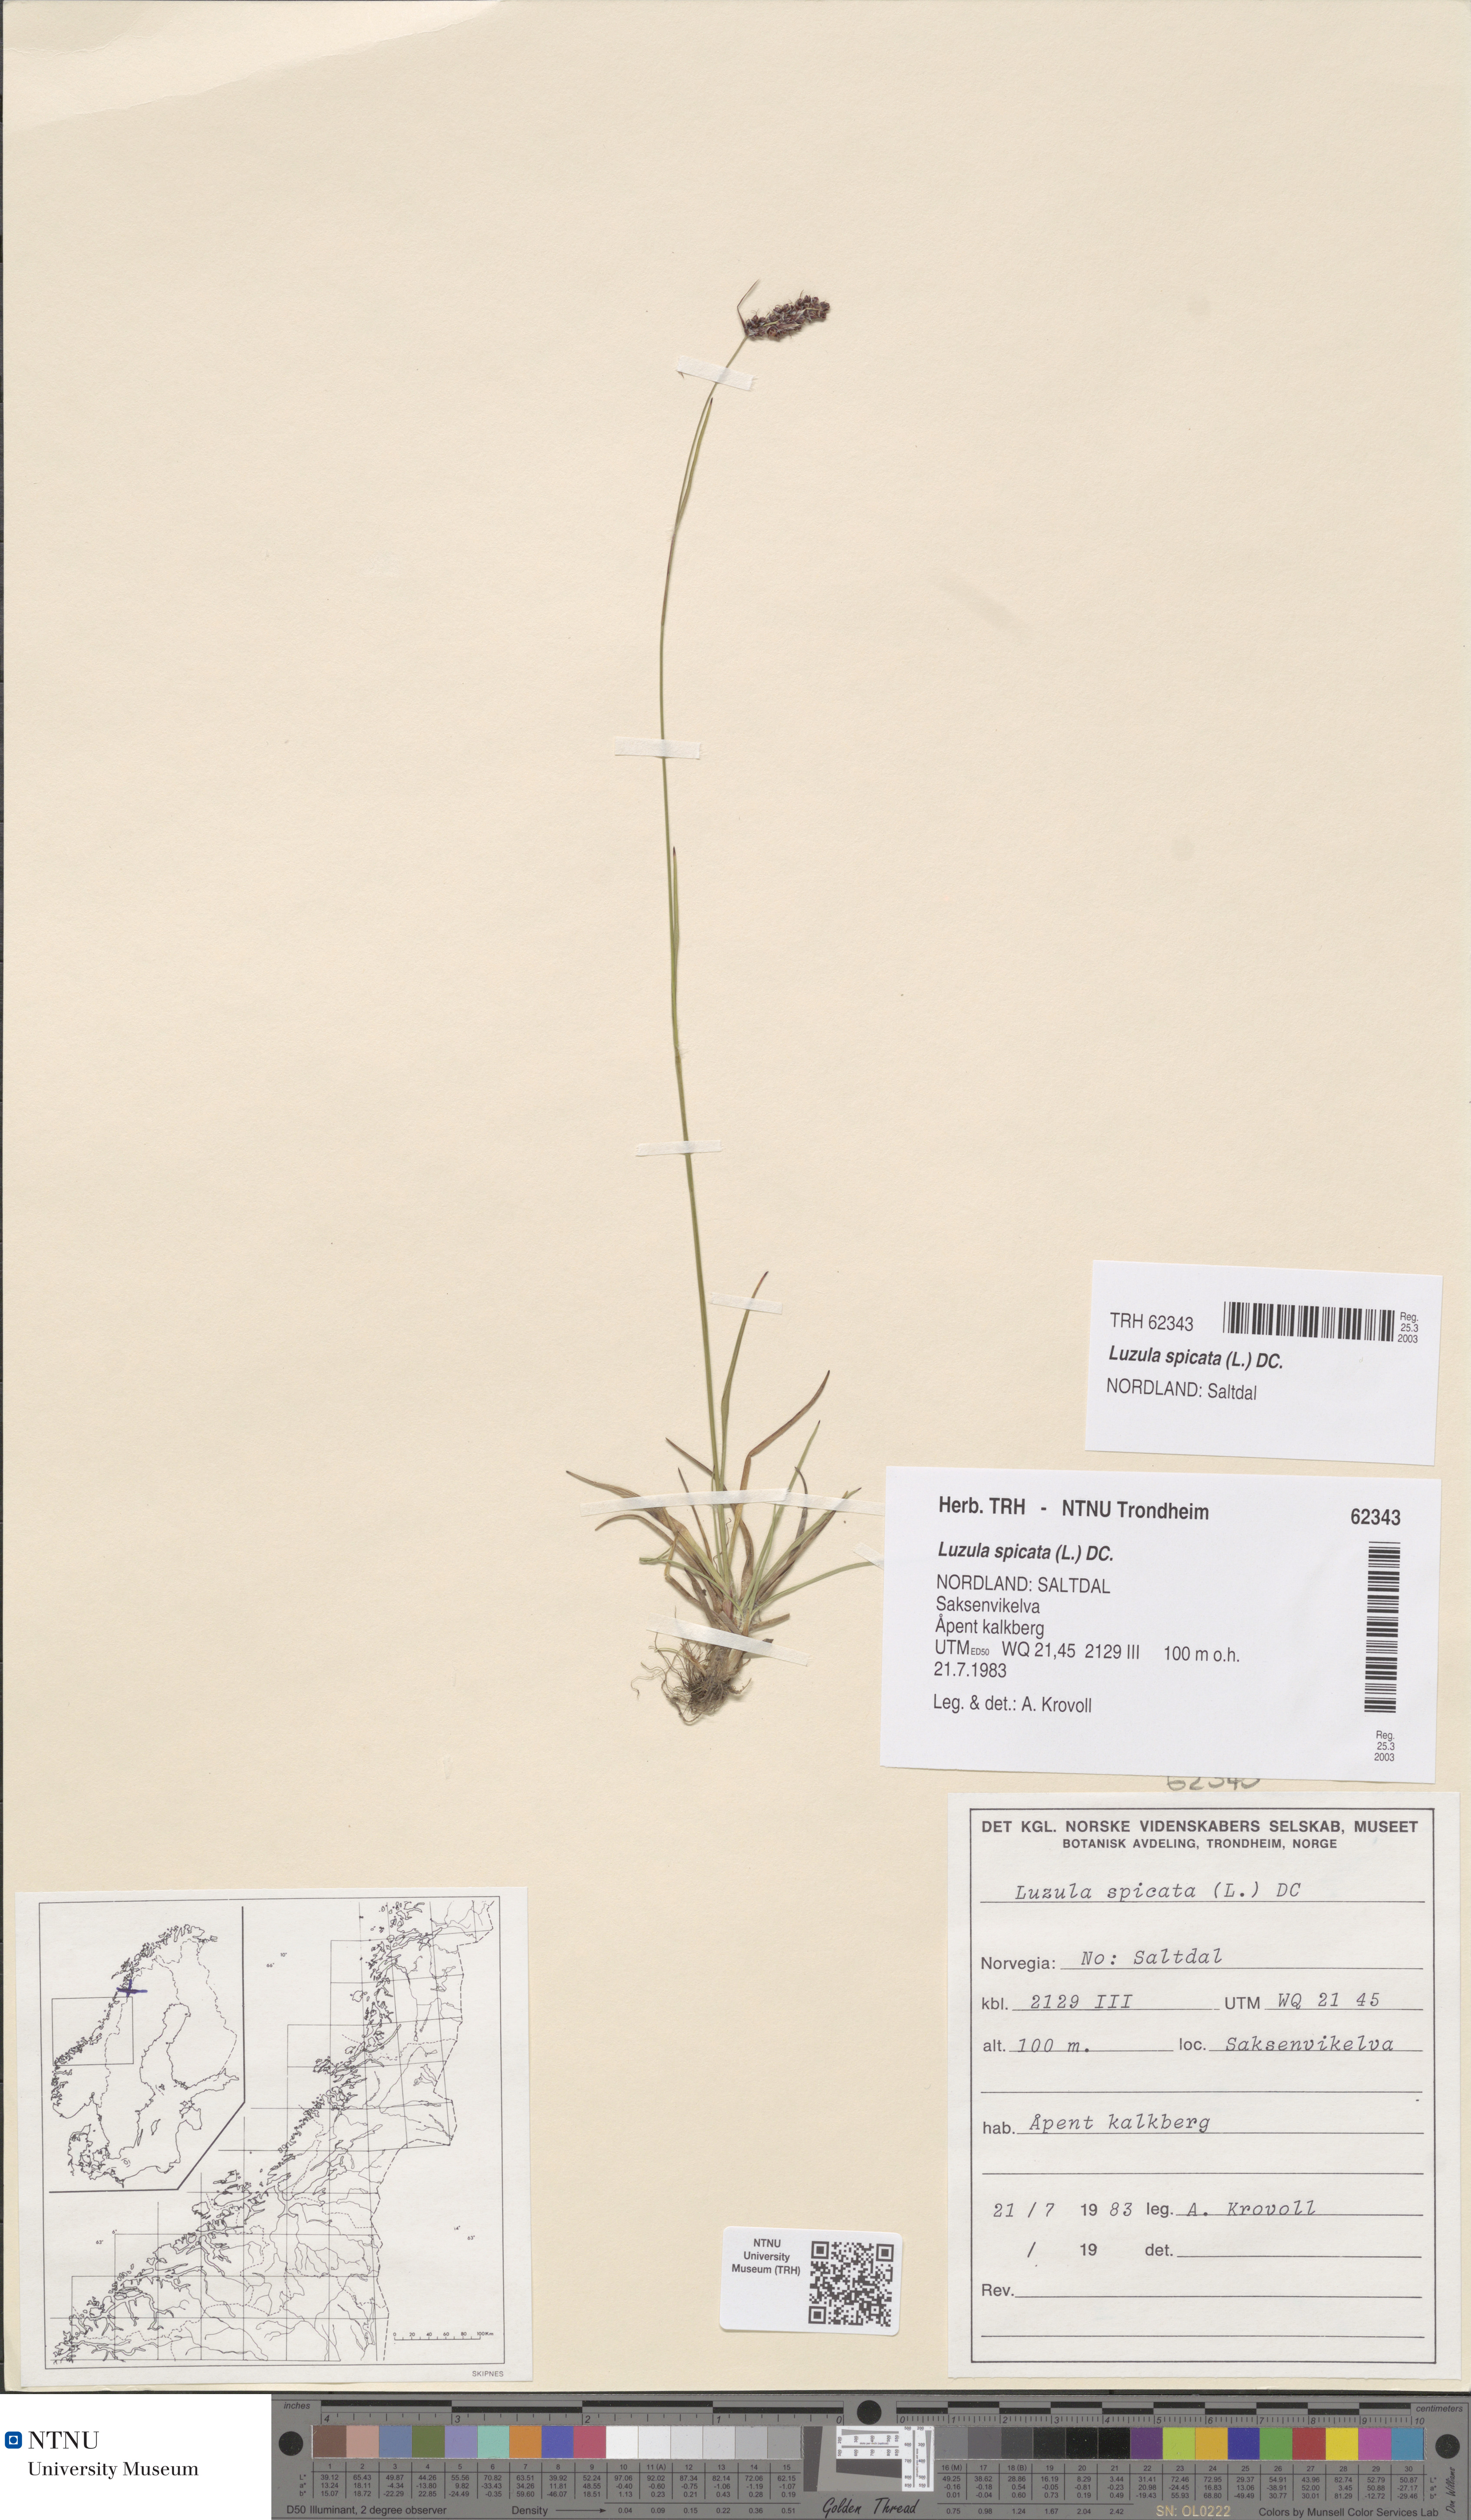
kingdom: Plantae
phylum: Tracheophyta
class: Liliopsida
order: Poales
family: Juncaceae
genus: Luzula
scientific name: Luzula spicata
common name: Spiked wood-rush
